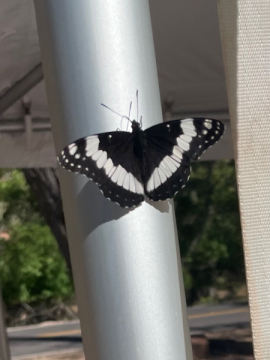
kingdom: Animalia
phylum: Arthropoda
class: Insecta
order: Lepidoptera
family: Nymphalidae
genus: Limenitis
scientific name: Limenitis weidemeyerii
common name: Weidemeyer's Admiral
